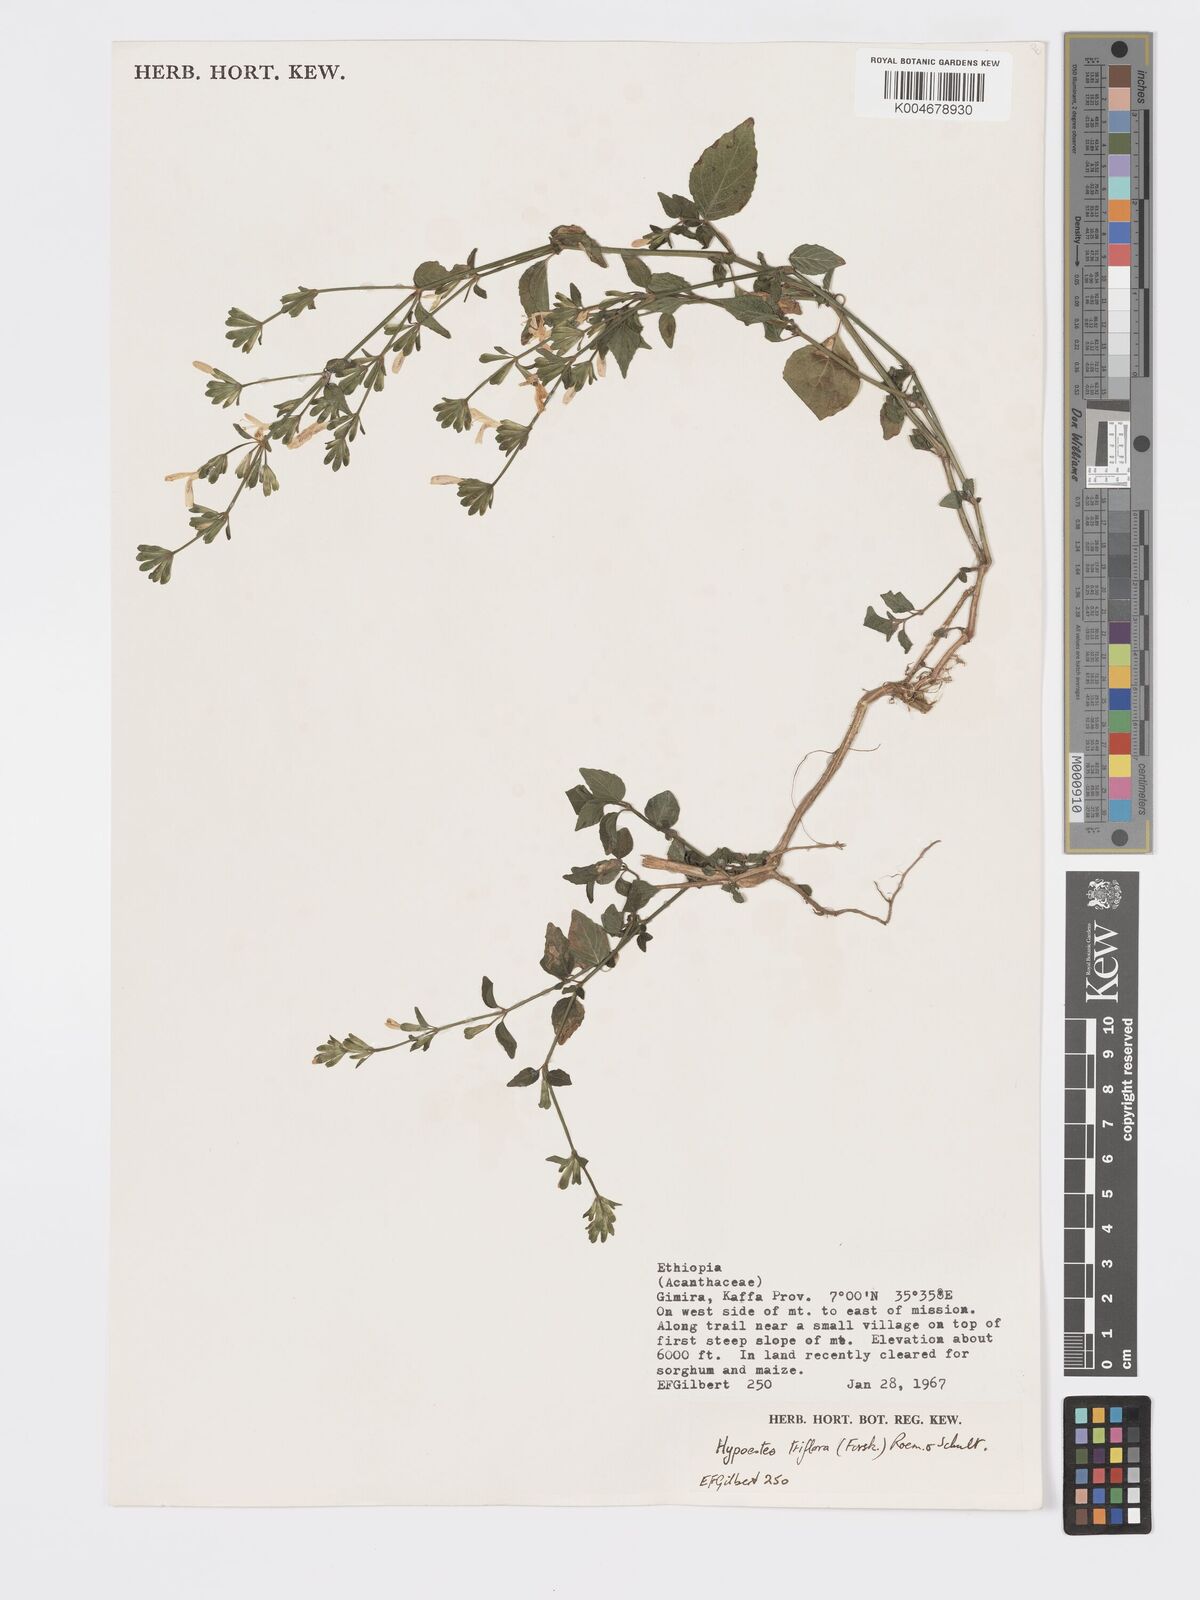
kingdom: Plantae
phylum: Tracheophyta
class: Magnoliopsida
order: Lamiales
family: Acanthaceae
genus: Hypoestes
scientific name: Hypoestes triflora
